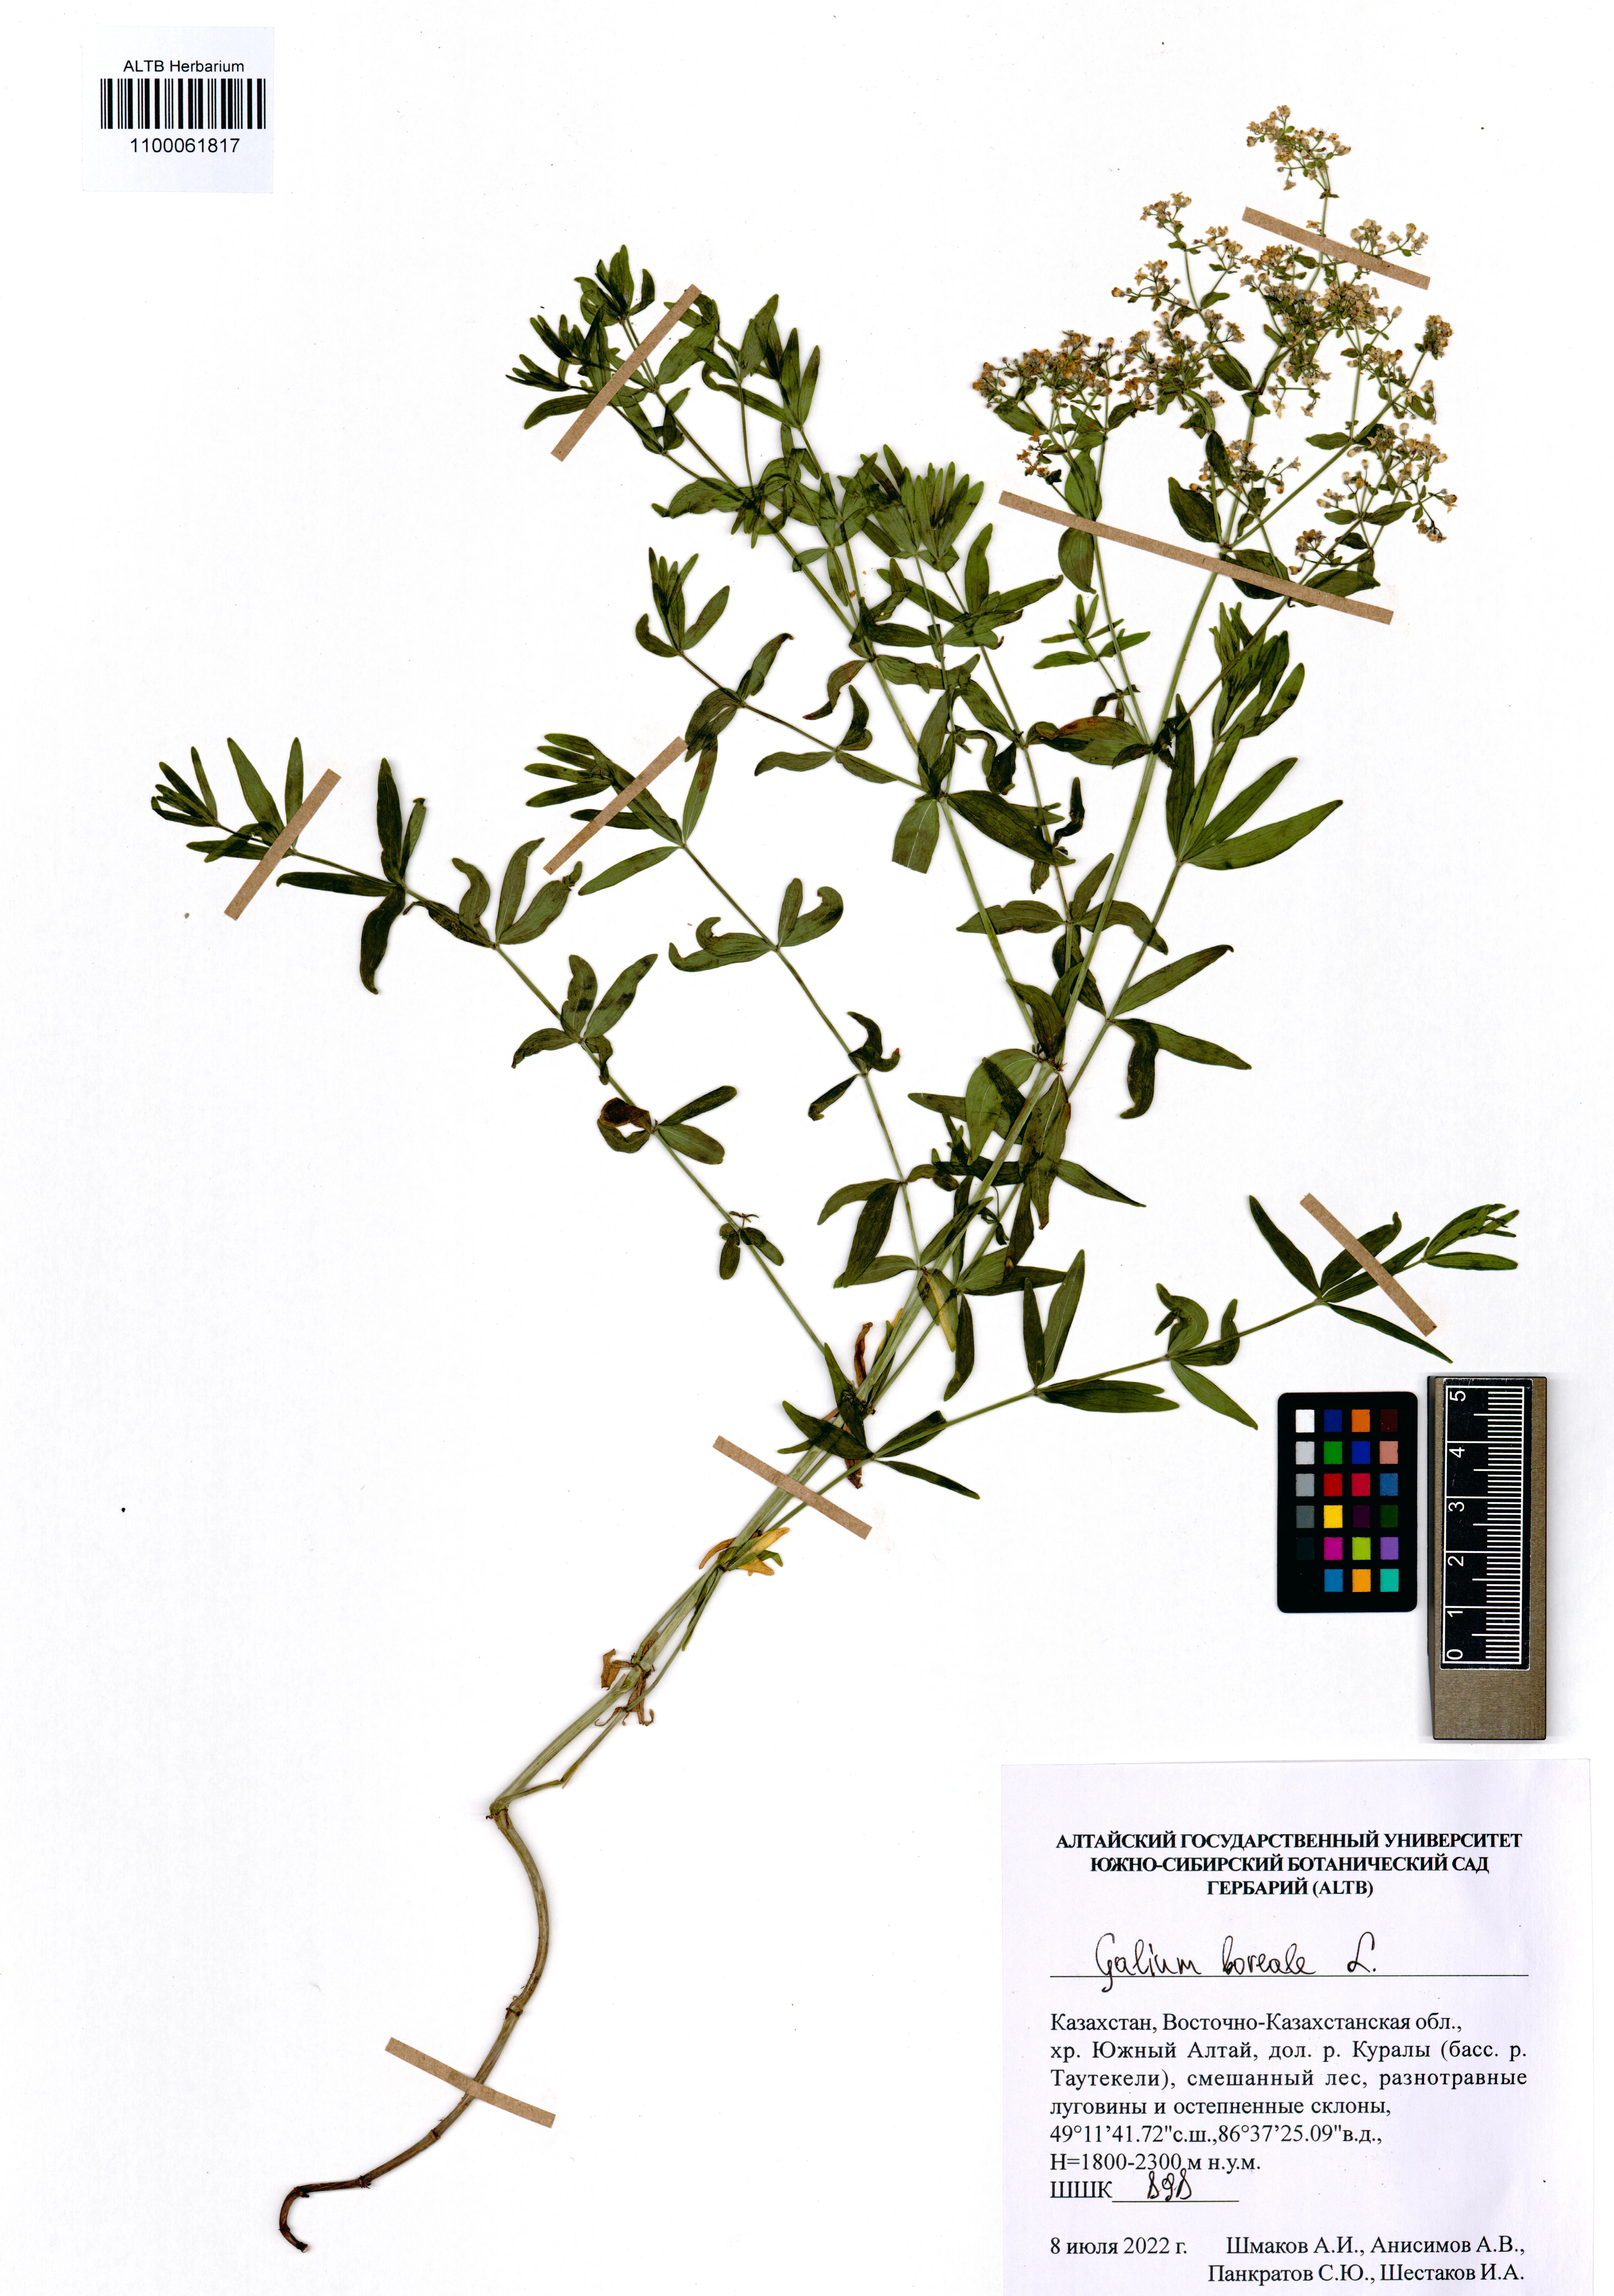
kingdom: Plantae
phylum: Tracheophyta
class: Magnoliopsida
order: Gentianales
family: Rubiaceae
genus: Galium
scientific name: Galium boreale
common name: Northern bedstraw
